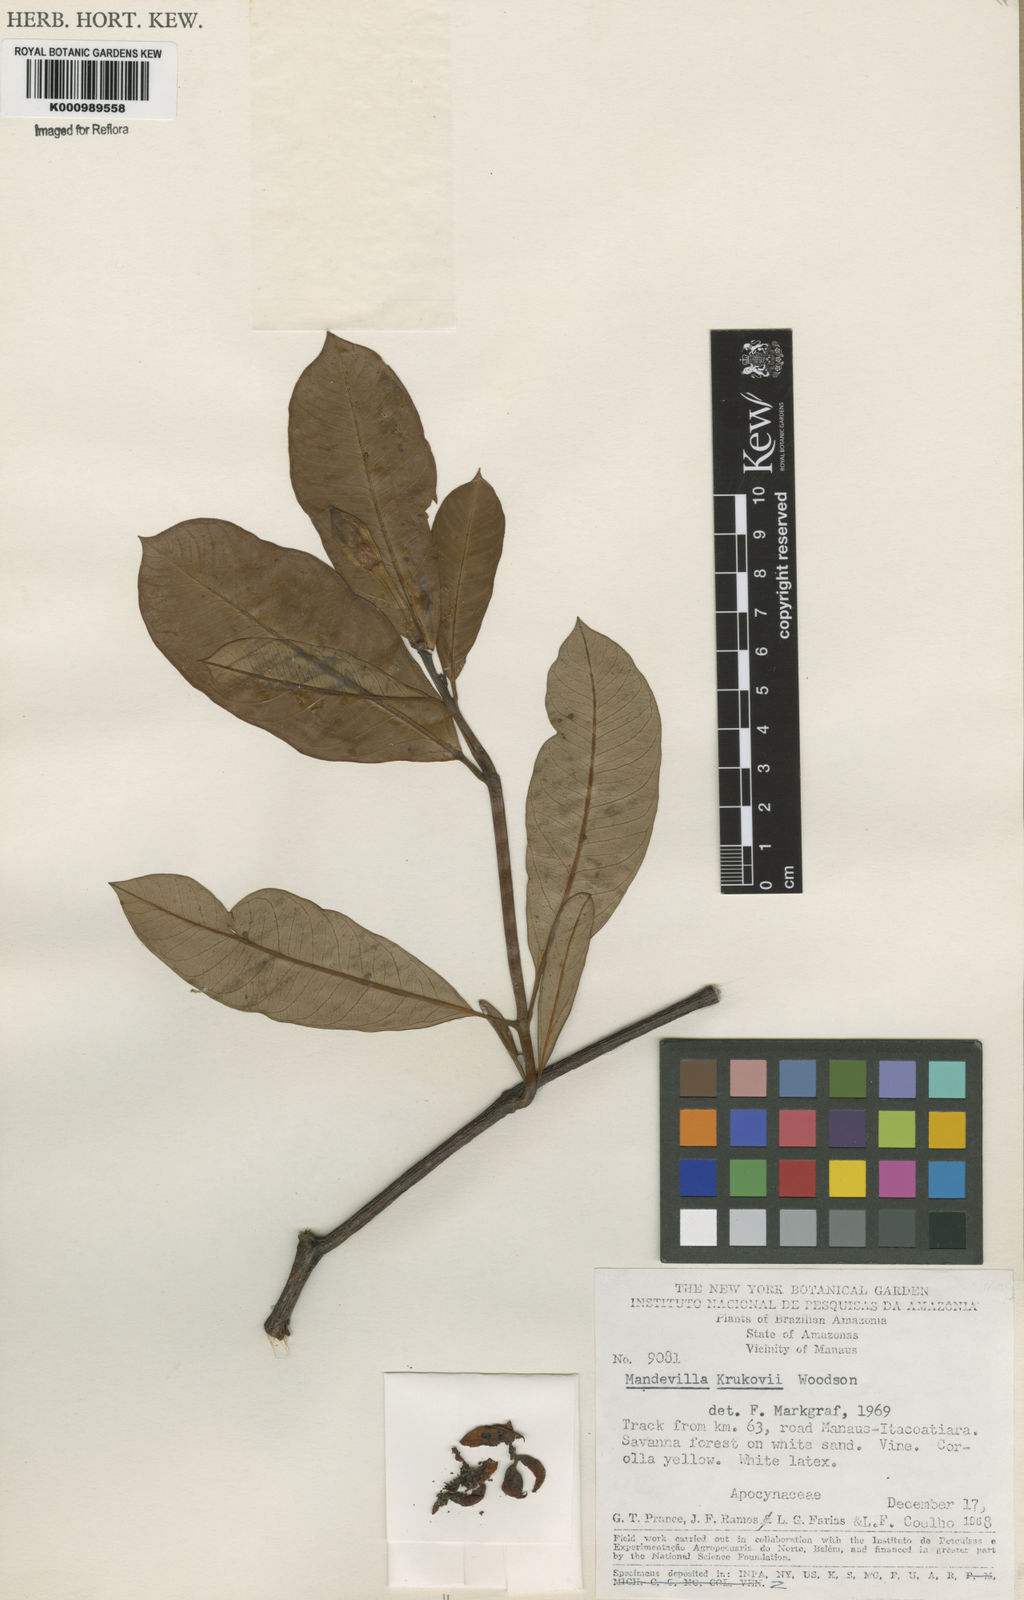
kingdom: Plantae
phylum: Tracheophyta
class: Magnoliopsida
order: Gentianales
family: Apocynaceae
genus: Mandevilla
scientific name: Mandevilla krukovii
